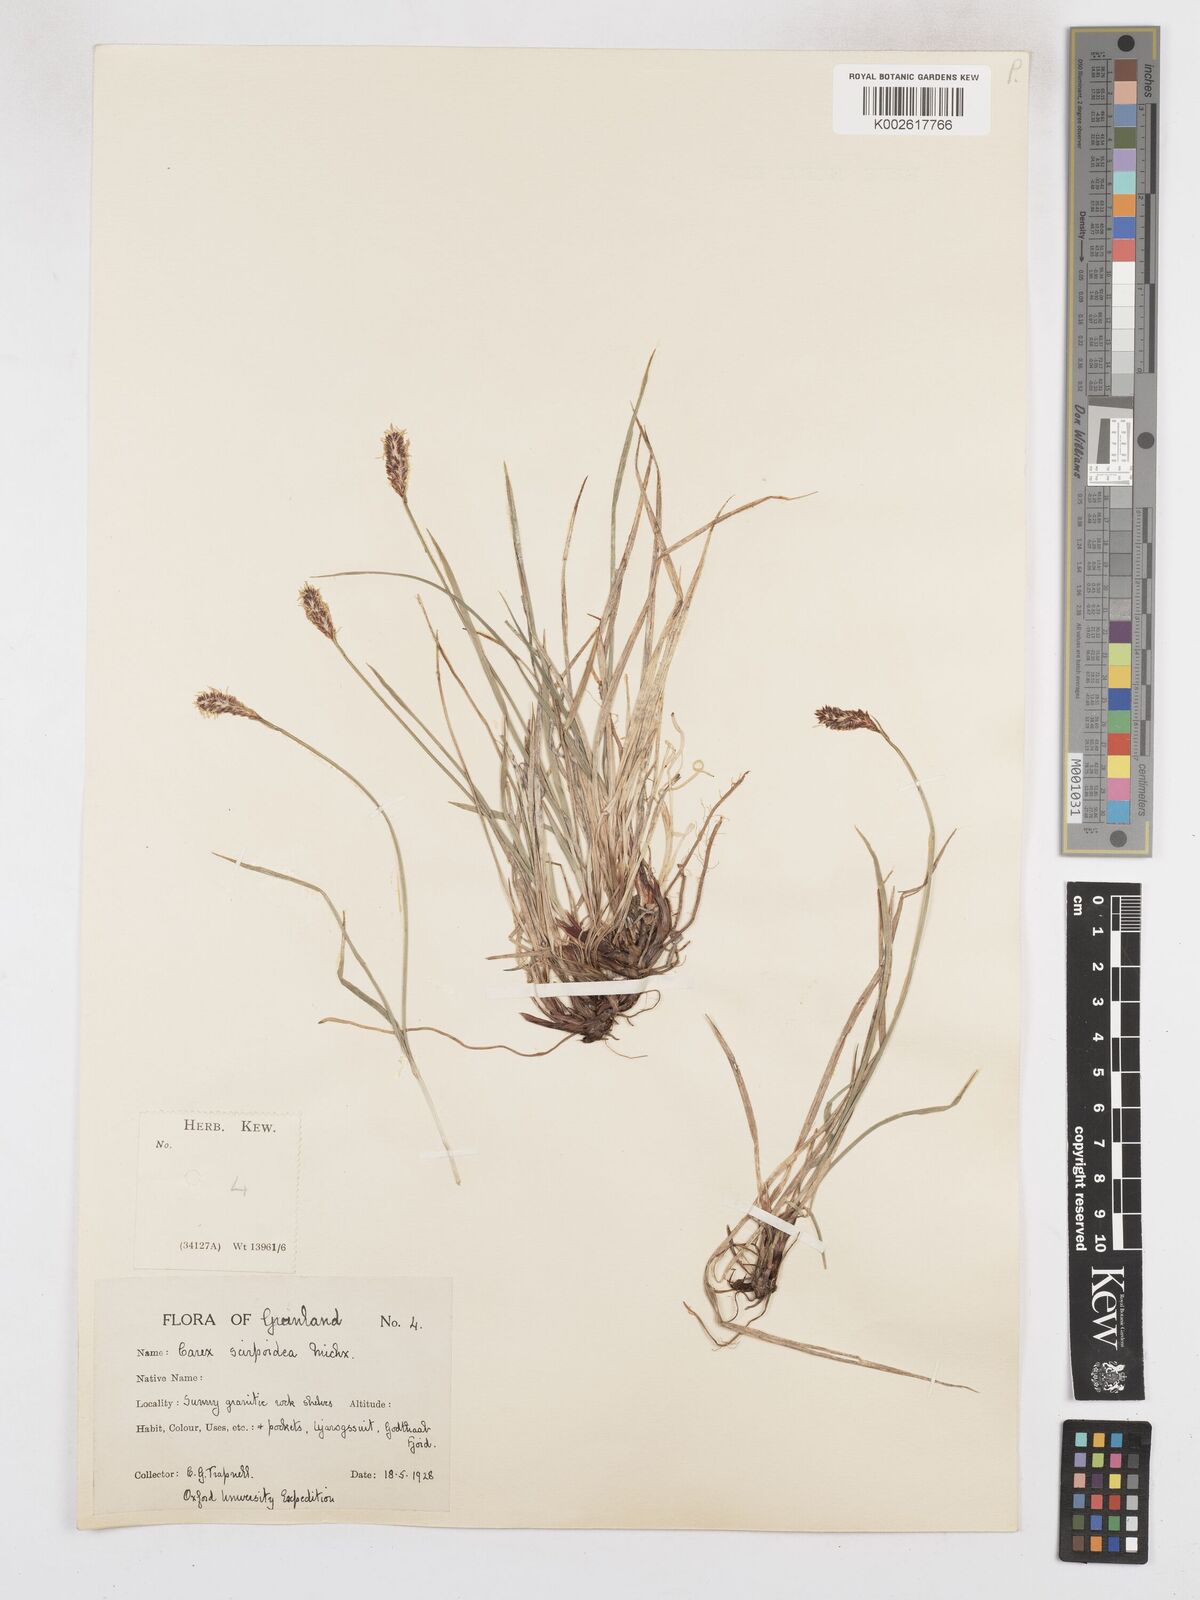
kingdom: Plantae
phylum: Tracheophyta
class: Liliopsida
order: Poales
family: Cyperaceae
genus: Carex
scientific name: Carex scirpoidea
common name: Canada single-spike sedge
